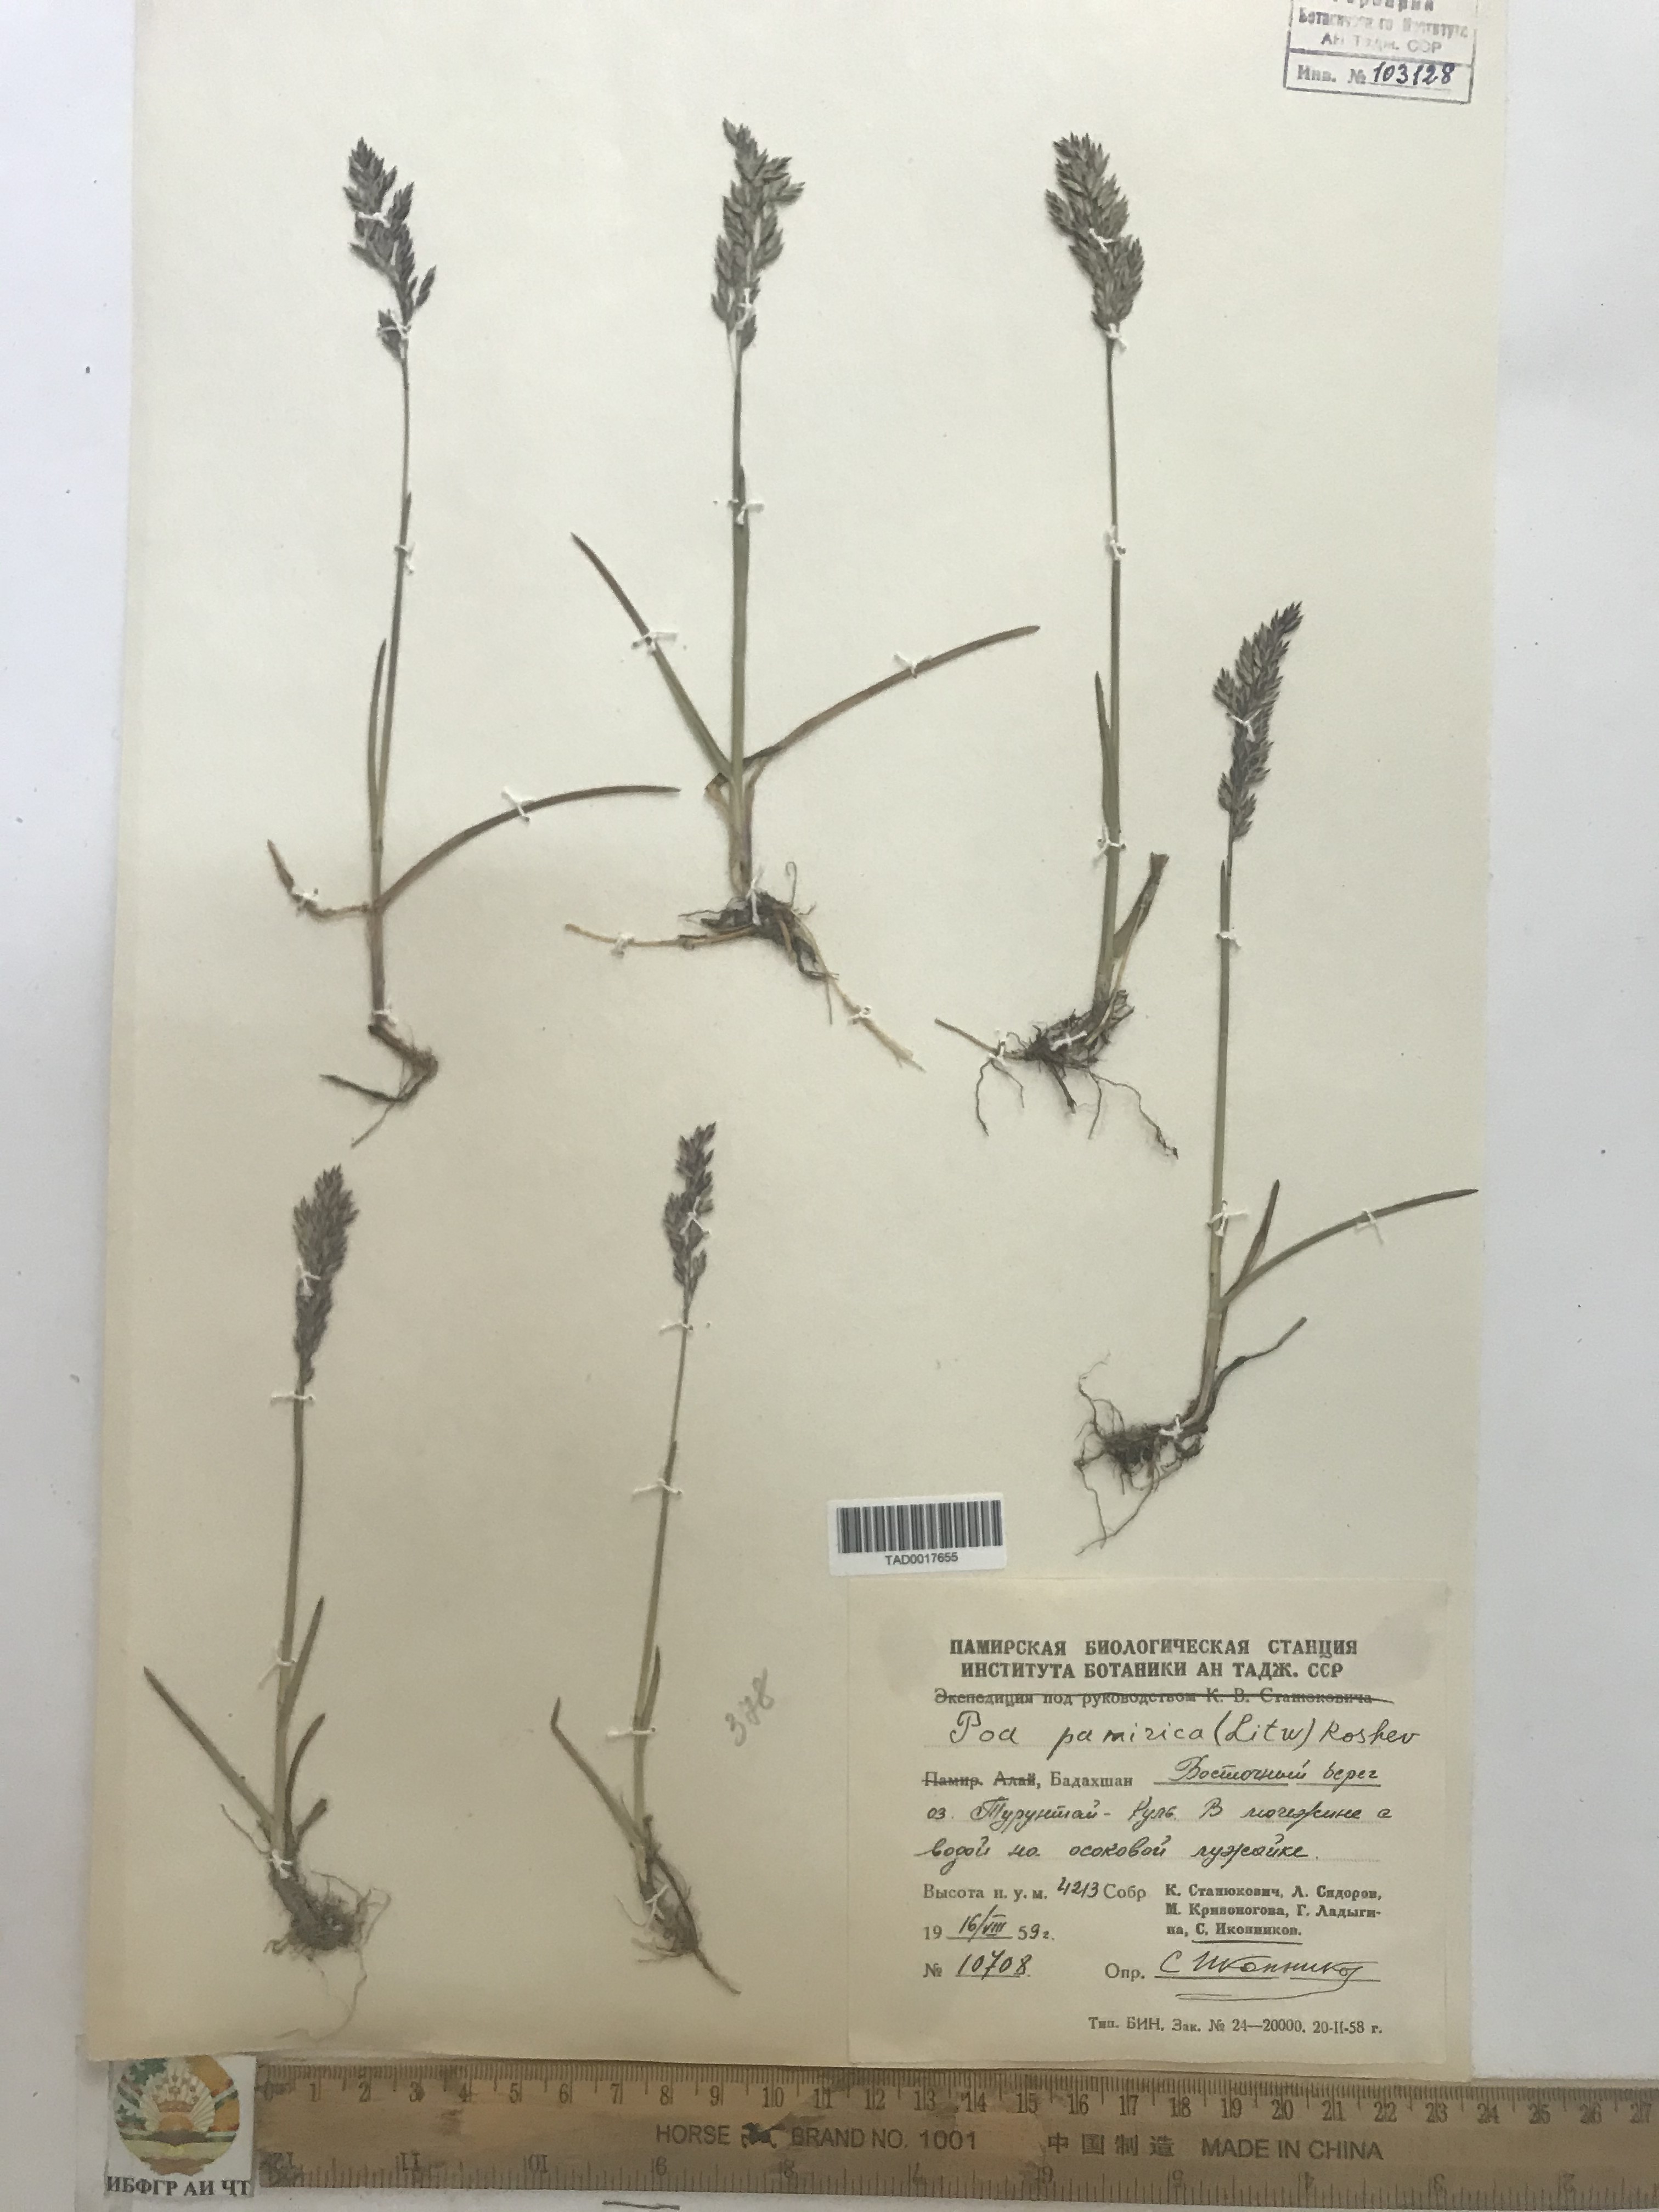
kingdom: Plantae
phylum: Tracheophyta
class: Liliopsida
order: Poales
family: Poaceae
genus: Poa
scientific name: Poa tianschanica
